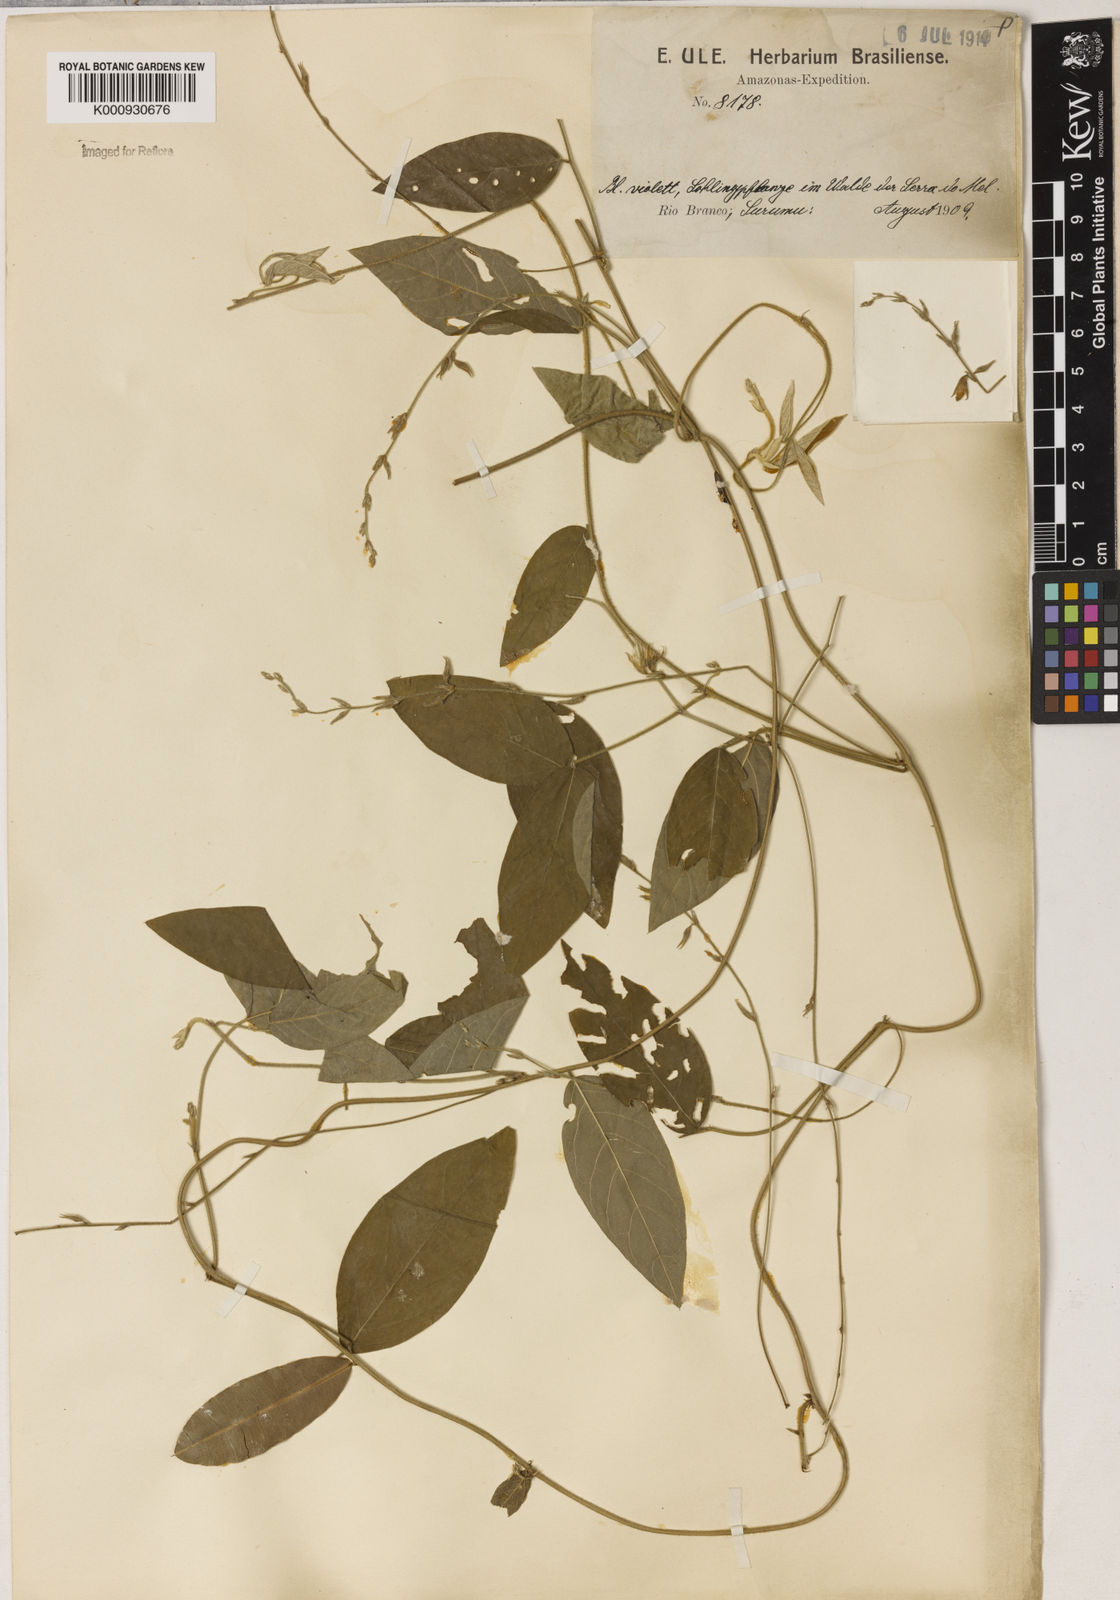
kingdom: Plantae
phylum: Tracheophyta
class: Magnoliopsida
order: Fabales
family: Fabaceae
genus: Galactia
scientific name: Galactia
